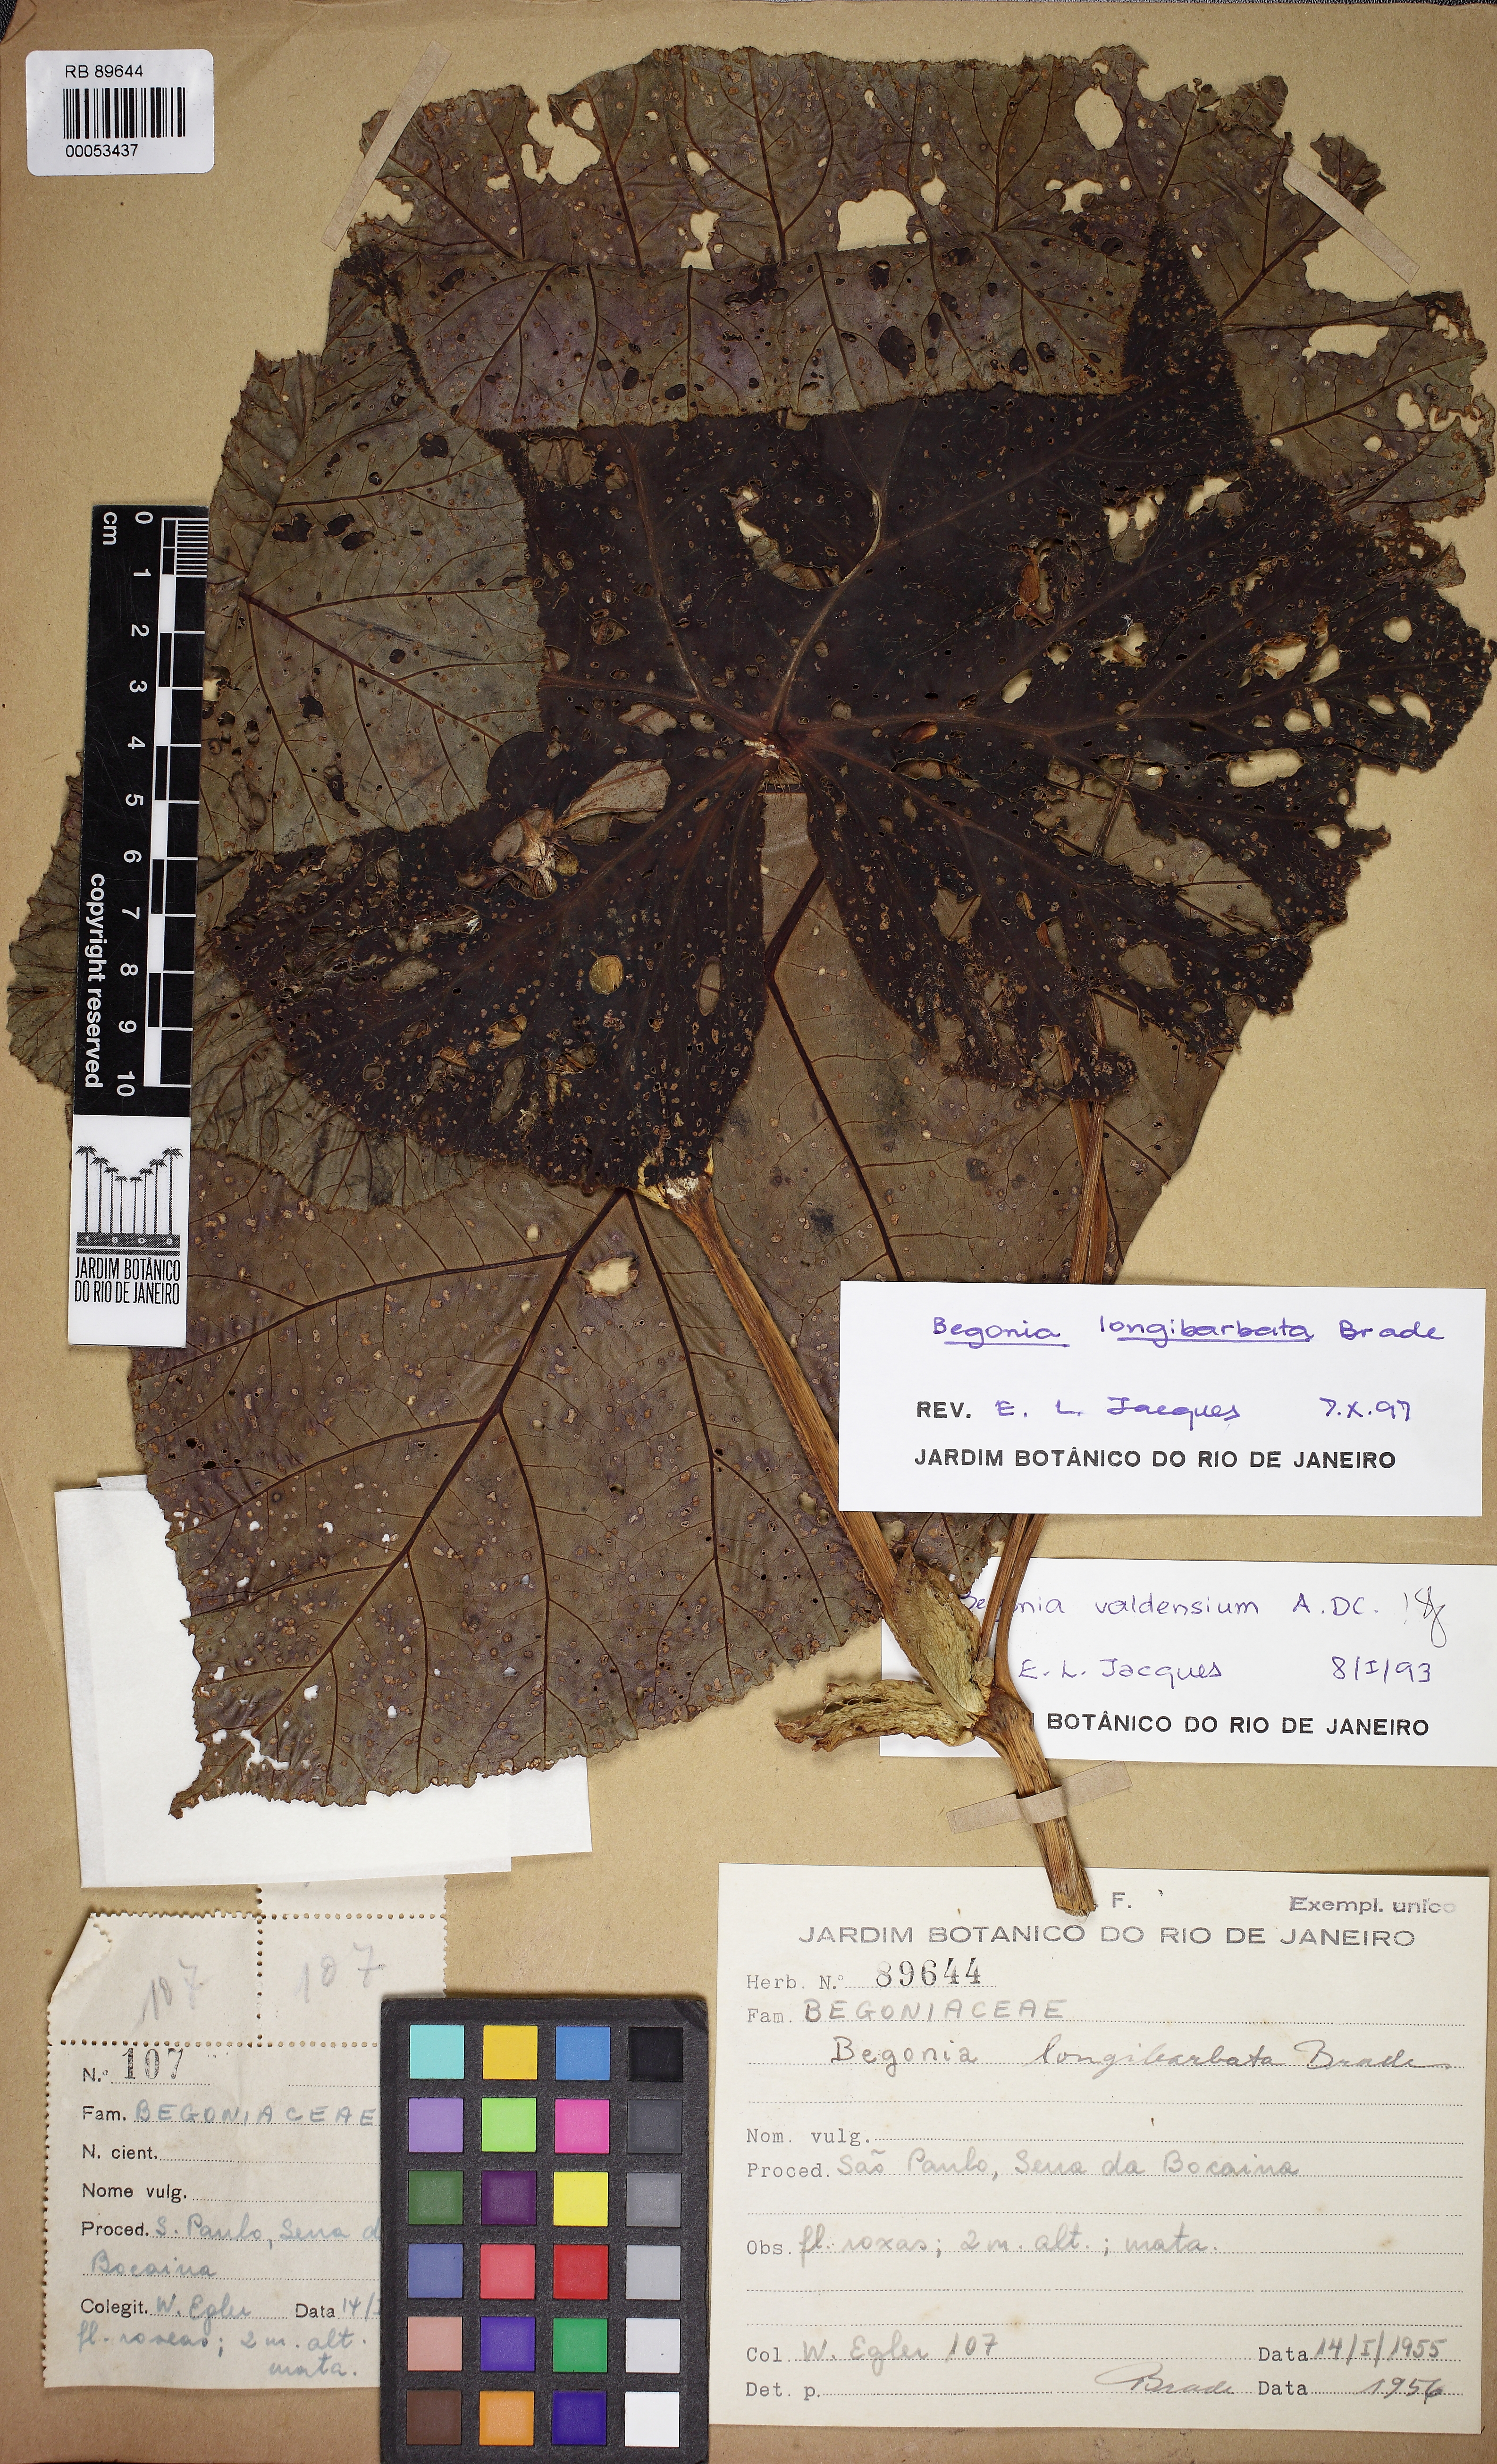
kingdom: Plantae
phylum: Tracheophyta
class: Magnoliopsida
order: Cucurbitales
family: Begoniaceae
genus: Begonia
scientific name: Begonia longibarbata
